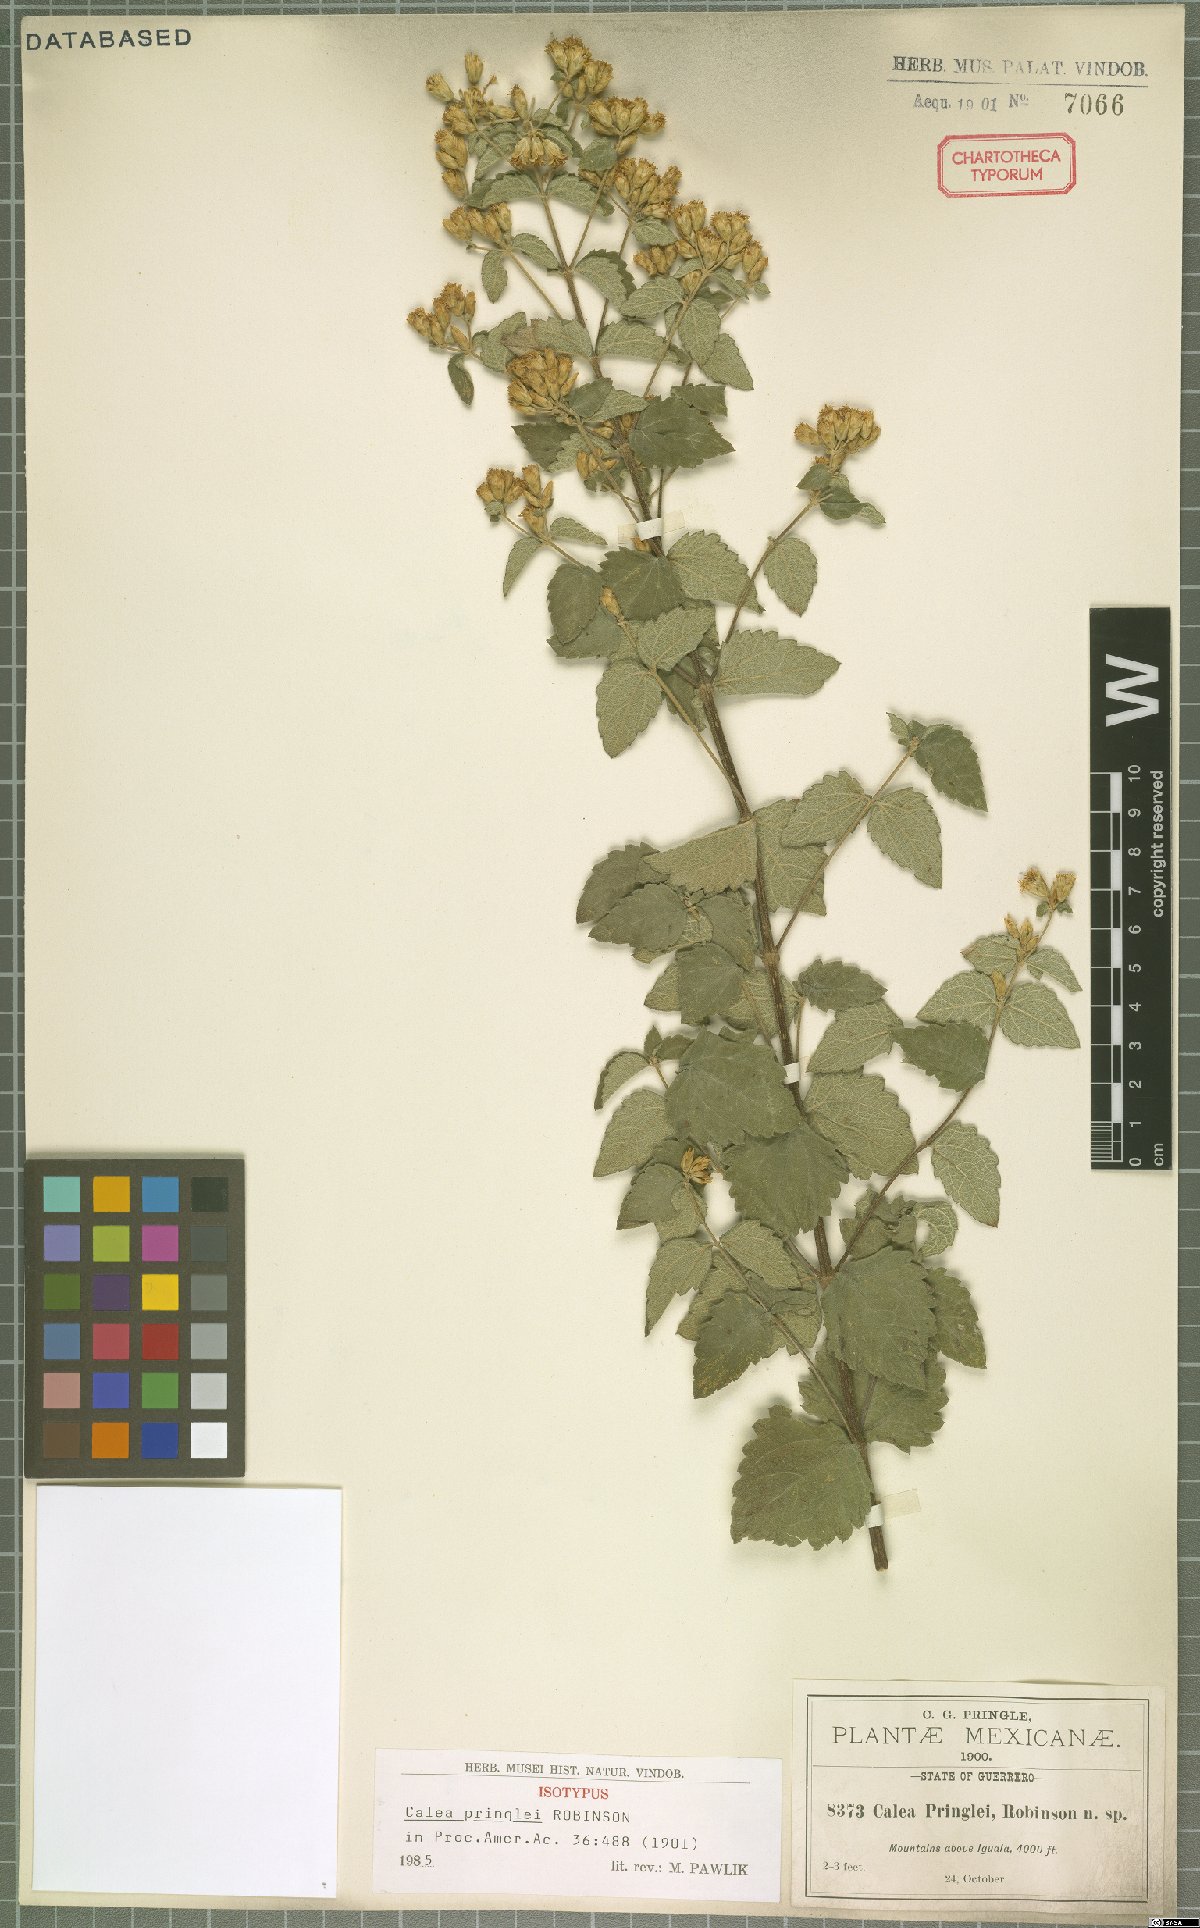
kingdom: Plantae
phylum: Tracheophyta
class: Magnoliopsida
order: Asterales
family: Asteraceae
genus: Calea
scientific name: Calea ternifolia
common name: Mexican calea
